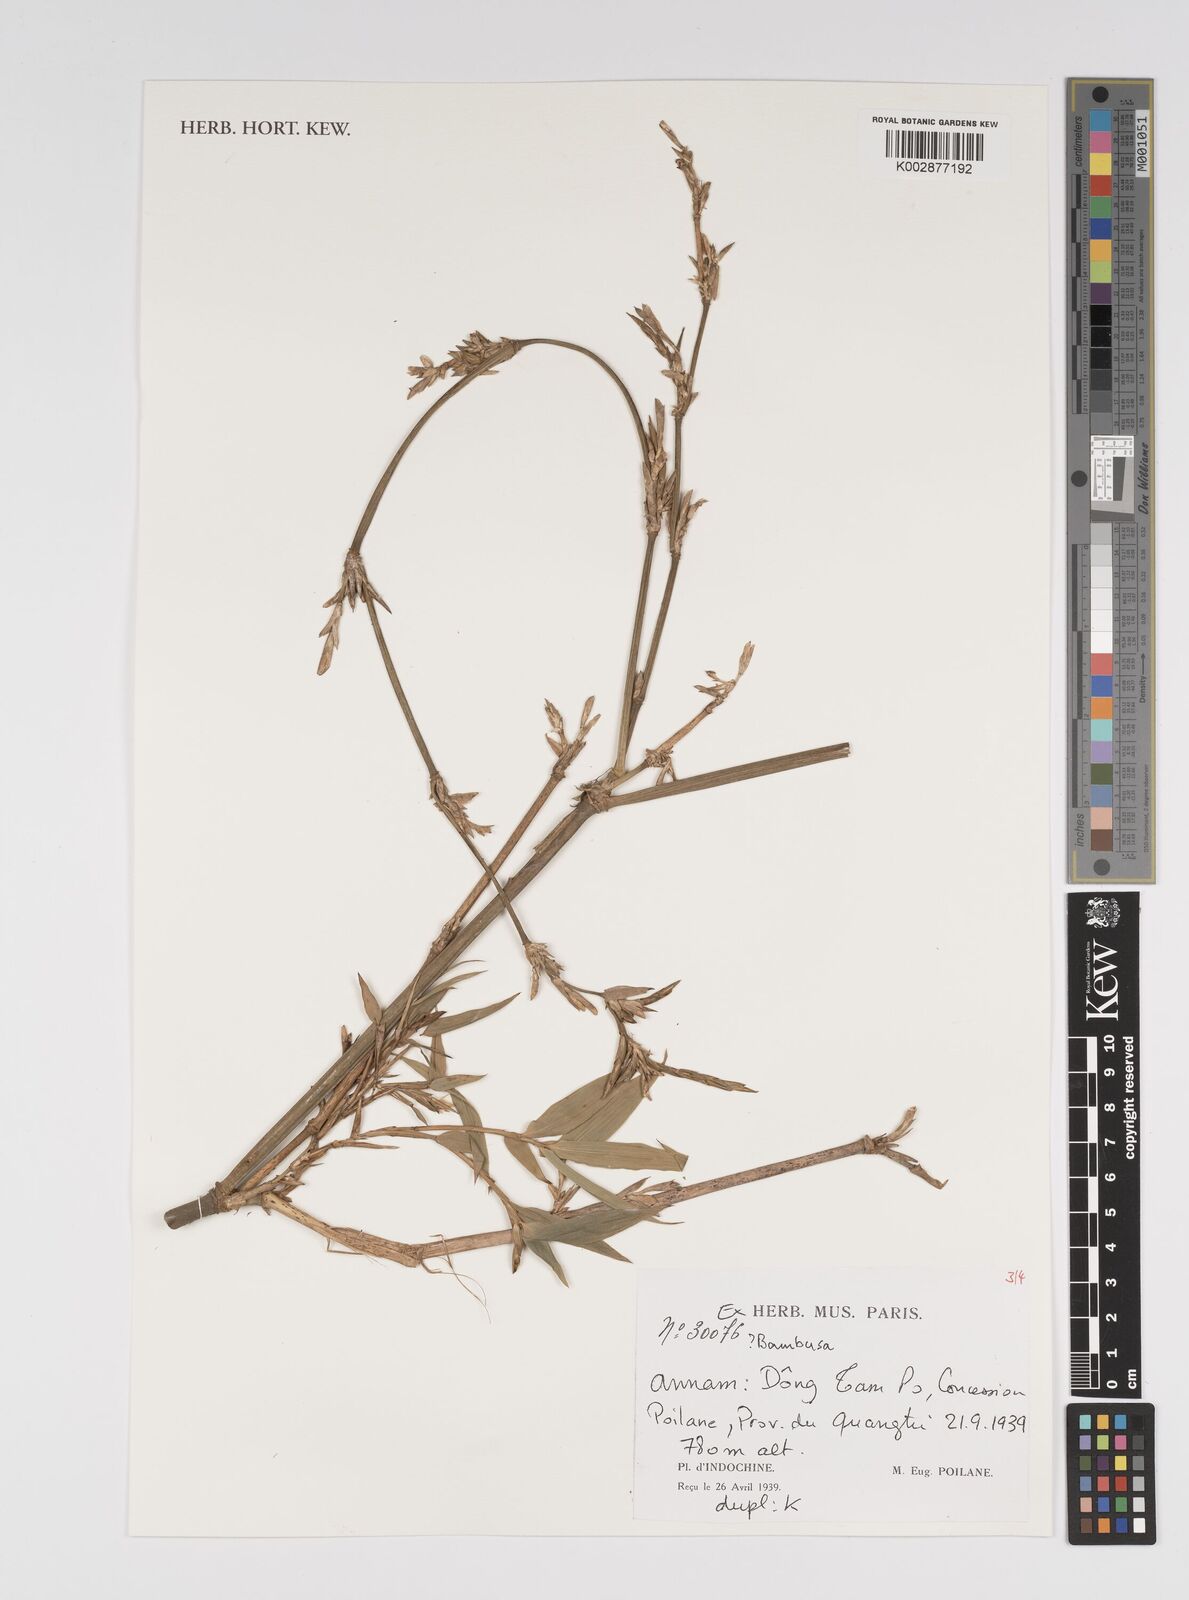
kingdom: Plantae
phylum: Tracheophyta
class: Liliopsida
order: Poales
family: Poaceae
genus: Bambusa
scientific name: Bambusa
